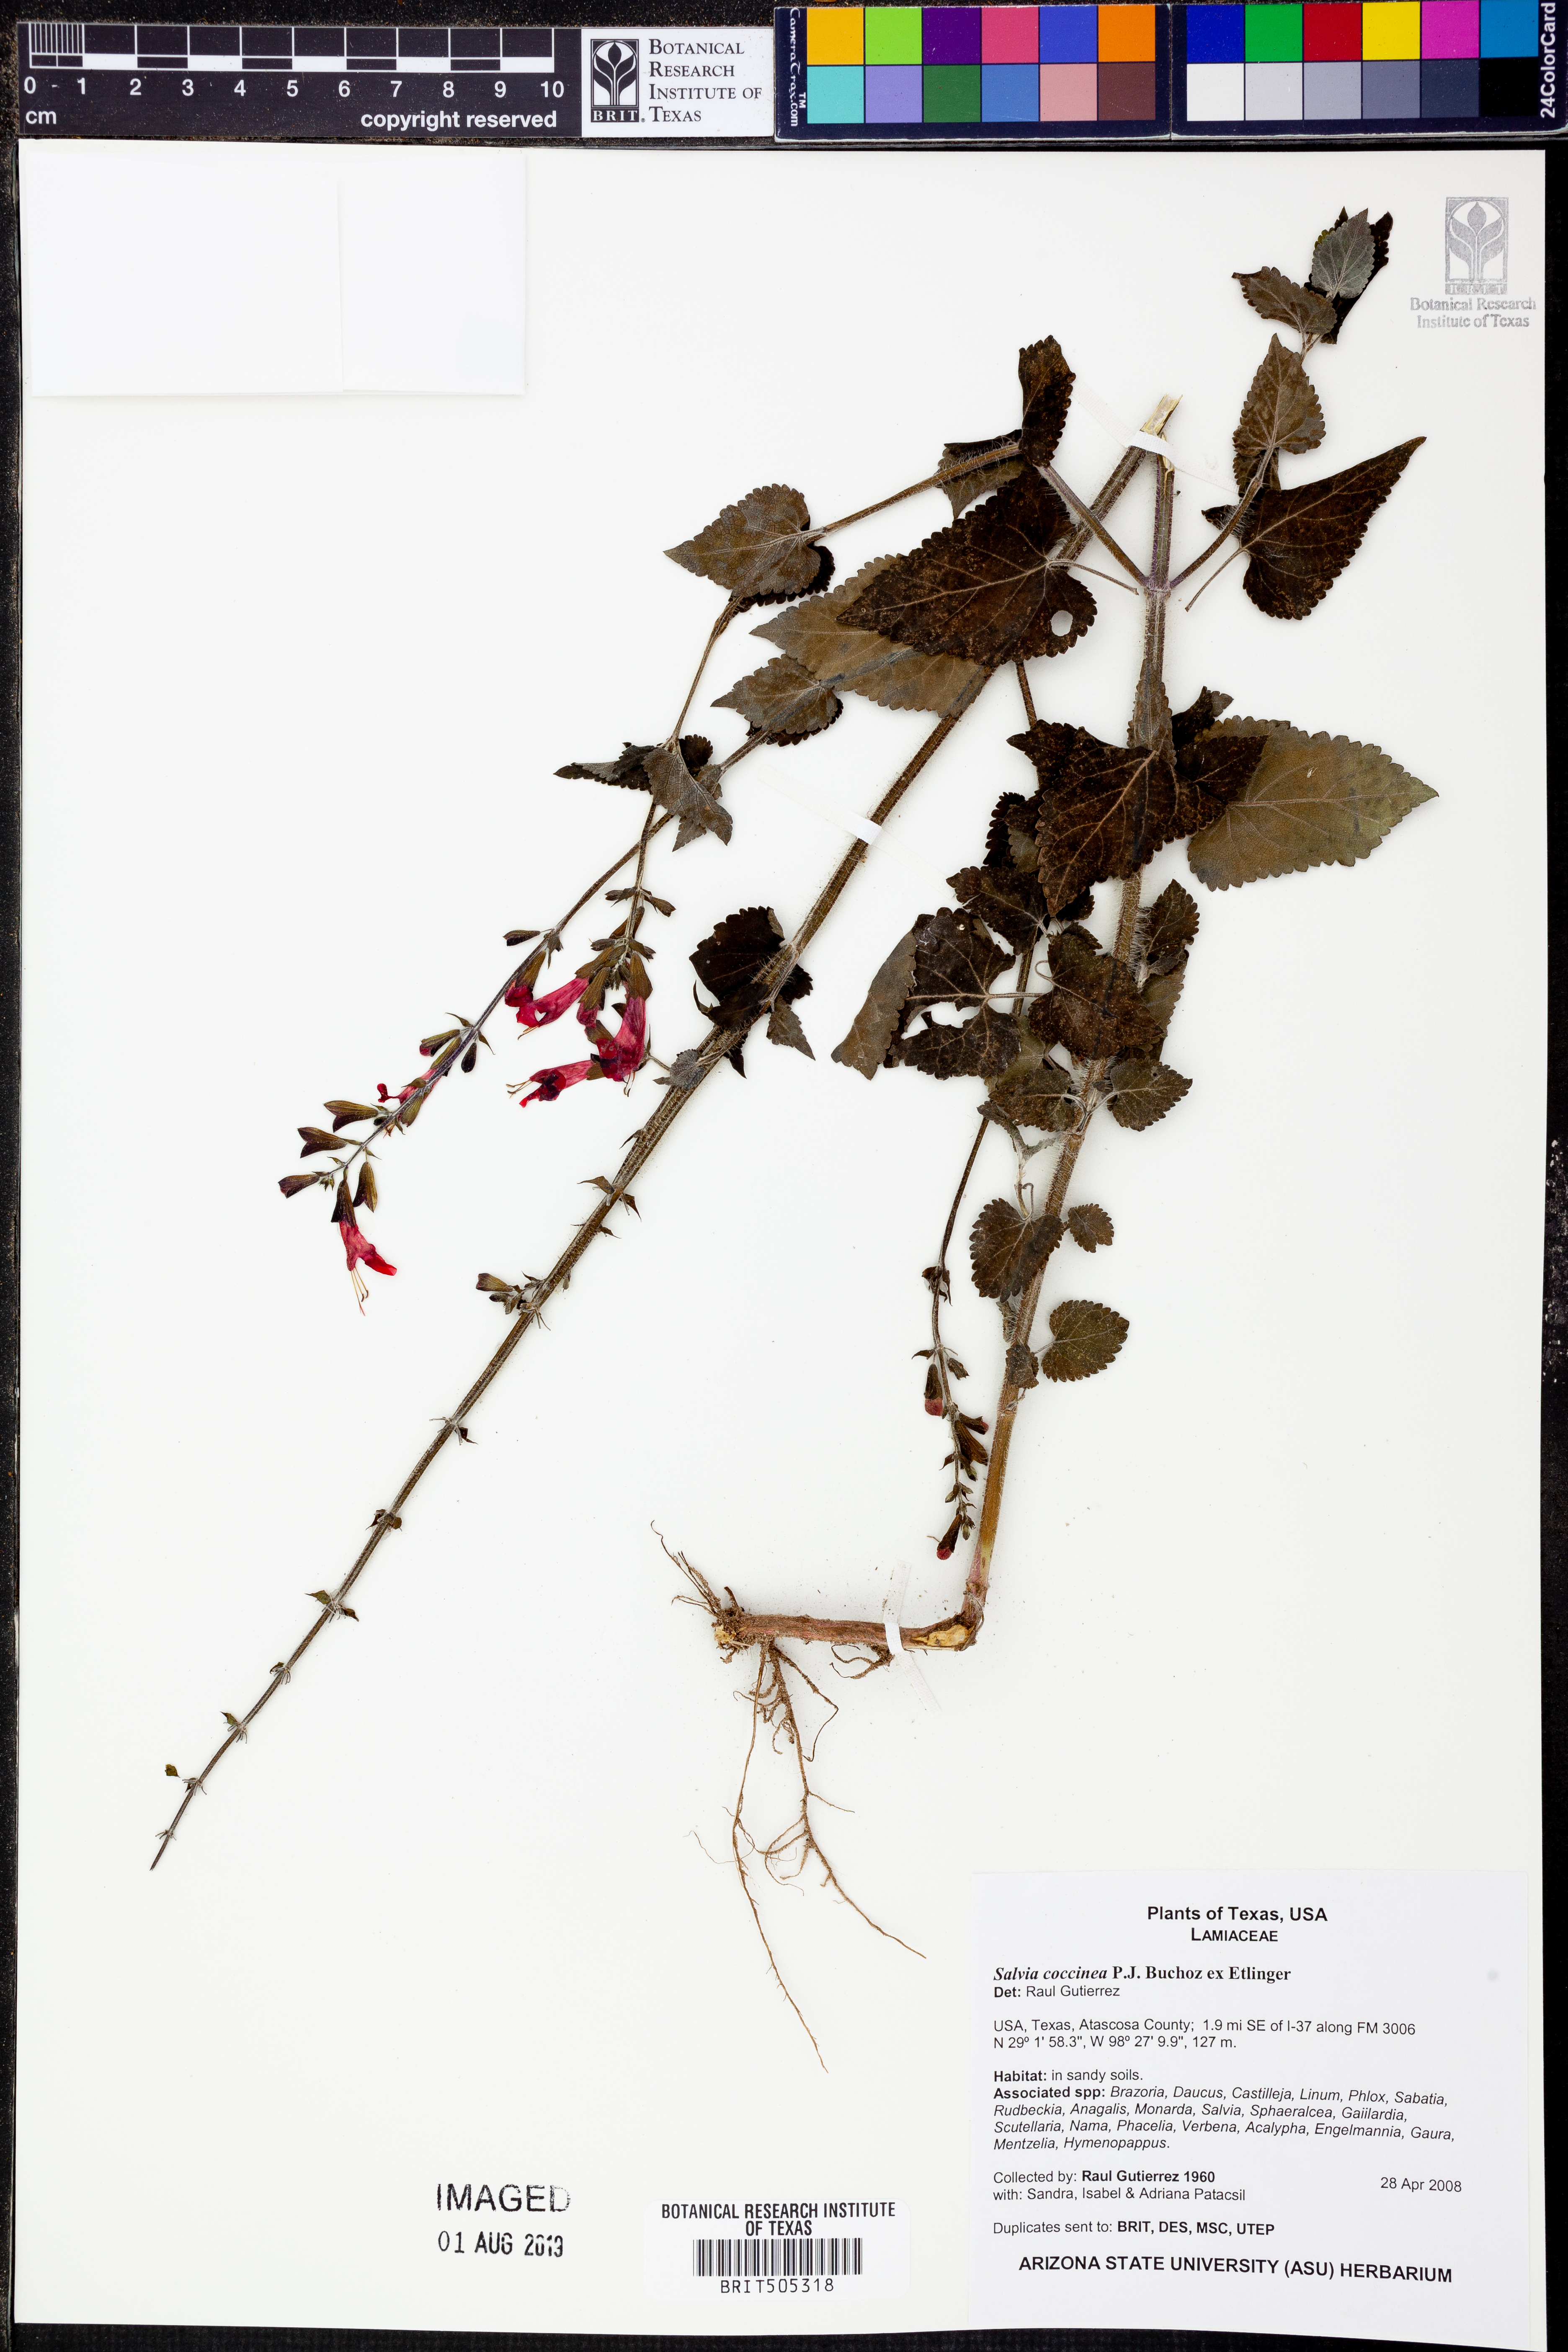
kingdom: Plantae
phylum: Tracheophyta
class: Magnoliopsida
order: Lamiales
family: Lamiaceae
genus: Salvia
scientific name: Salvia coccinea
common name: Blood sage
